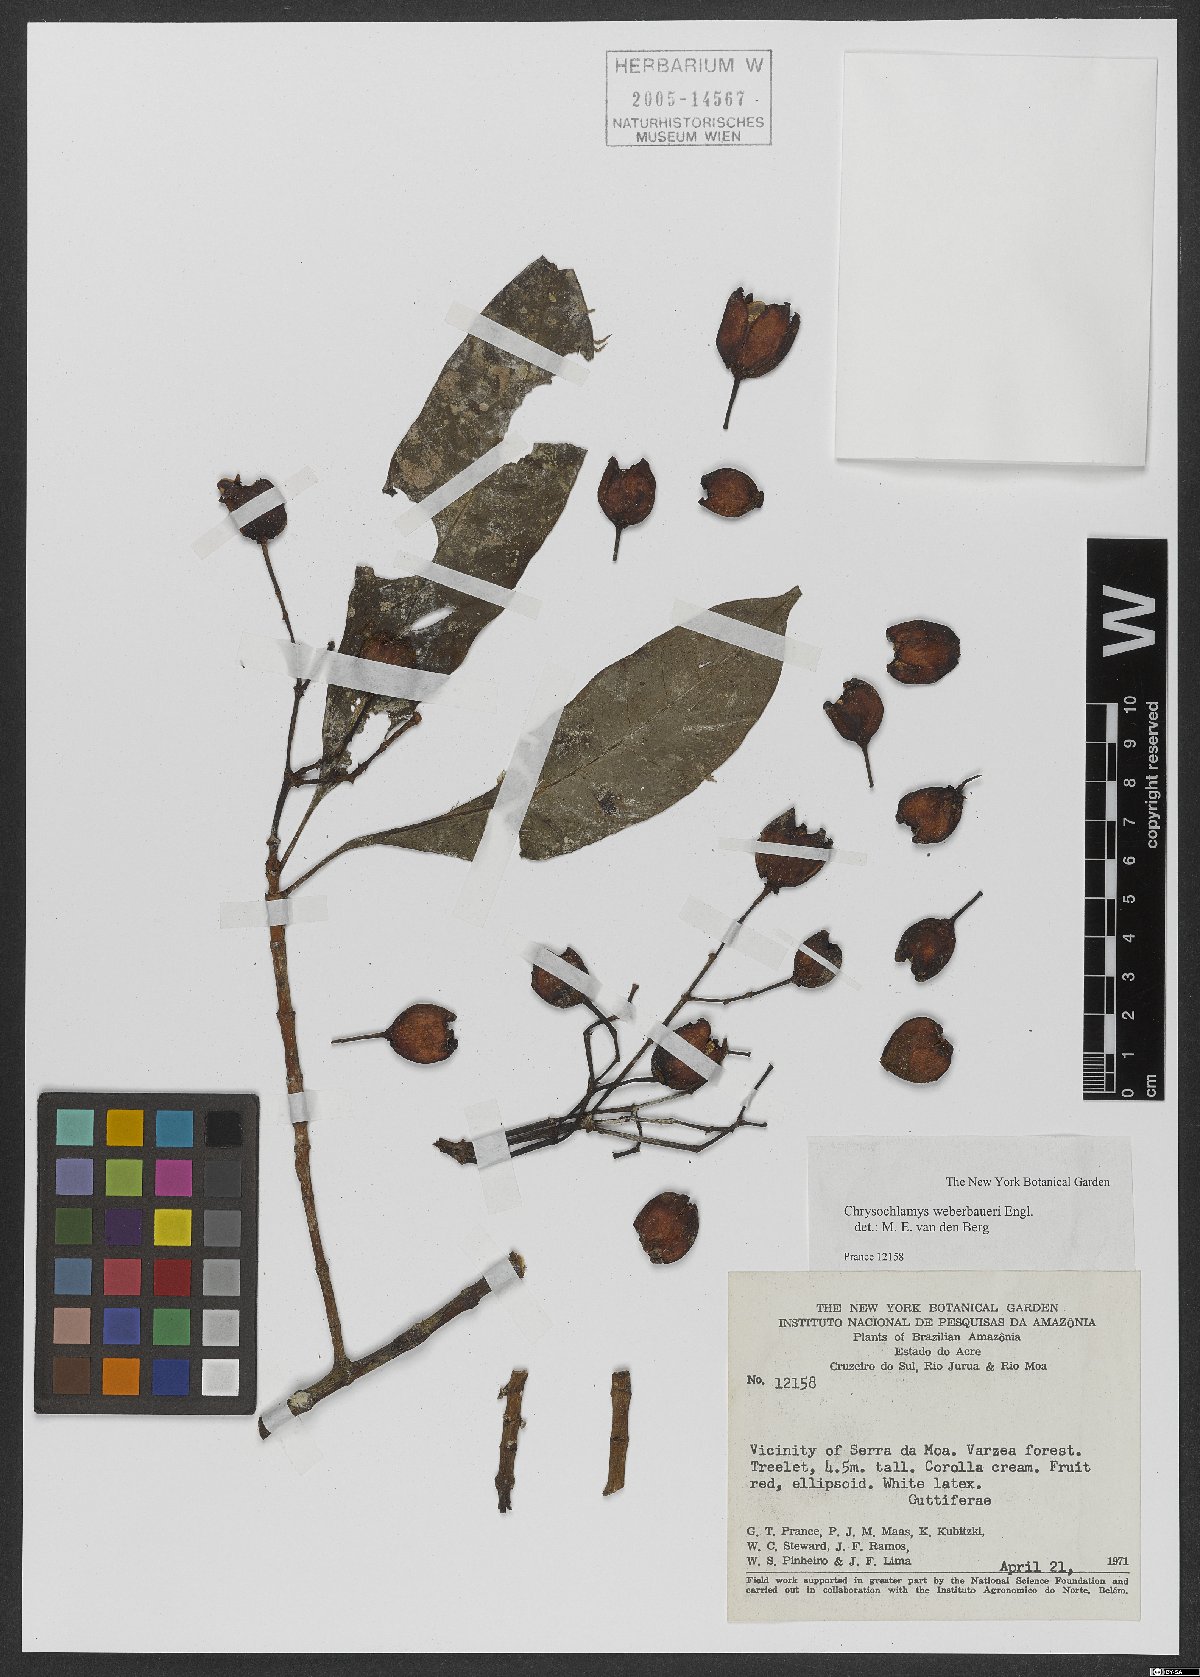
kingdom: Plantae
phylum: Tracheophyta
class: Magnoliopsida
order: Malpighiales
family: Clusiaceae
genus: Chrysochlamys
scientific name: Chrysochlamys weberbaueri
